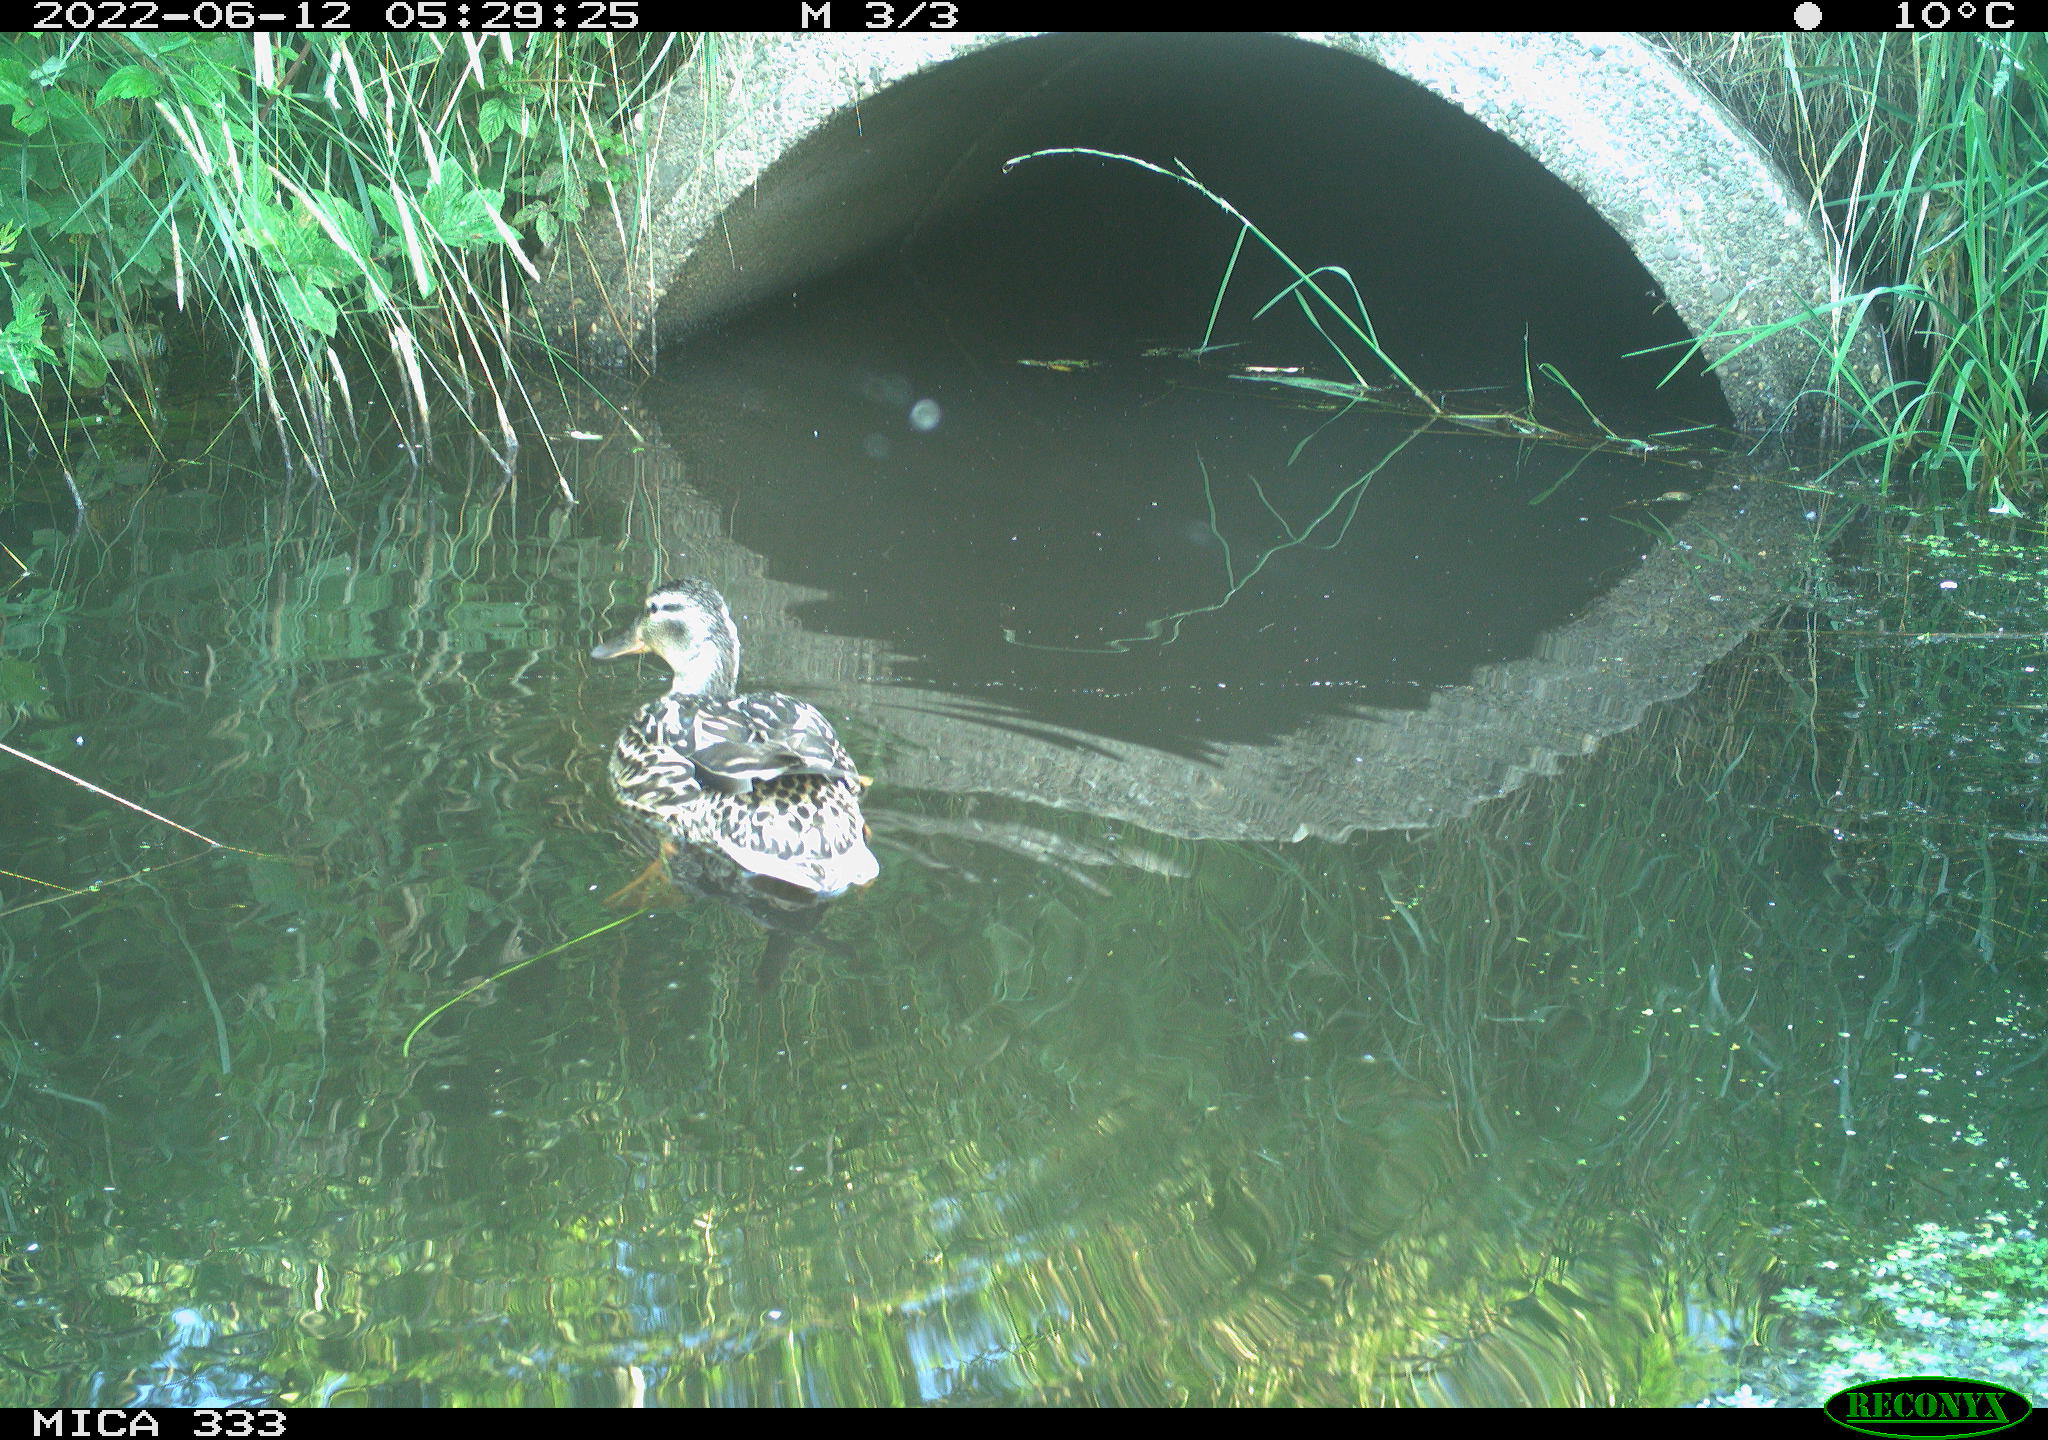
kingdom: Animalia
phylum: Chordata
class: Aves
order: Anseriformes
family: Anatidae
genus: Anas
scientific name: Anas platyrhynchos
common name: Mallard
